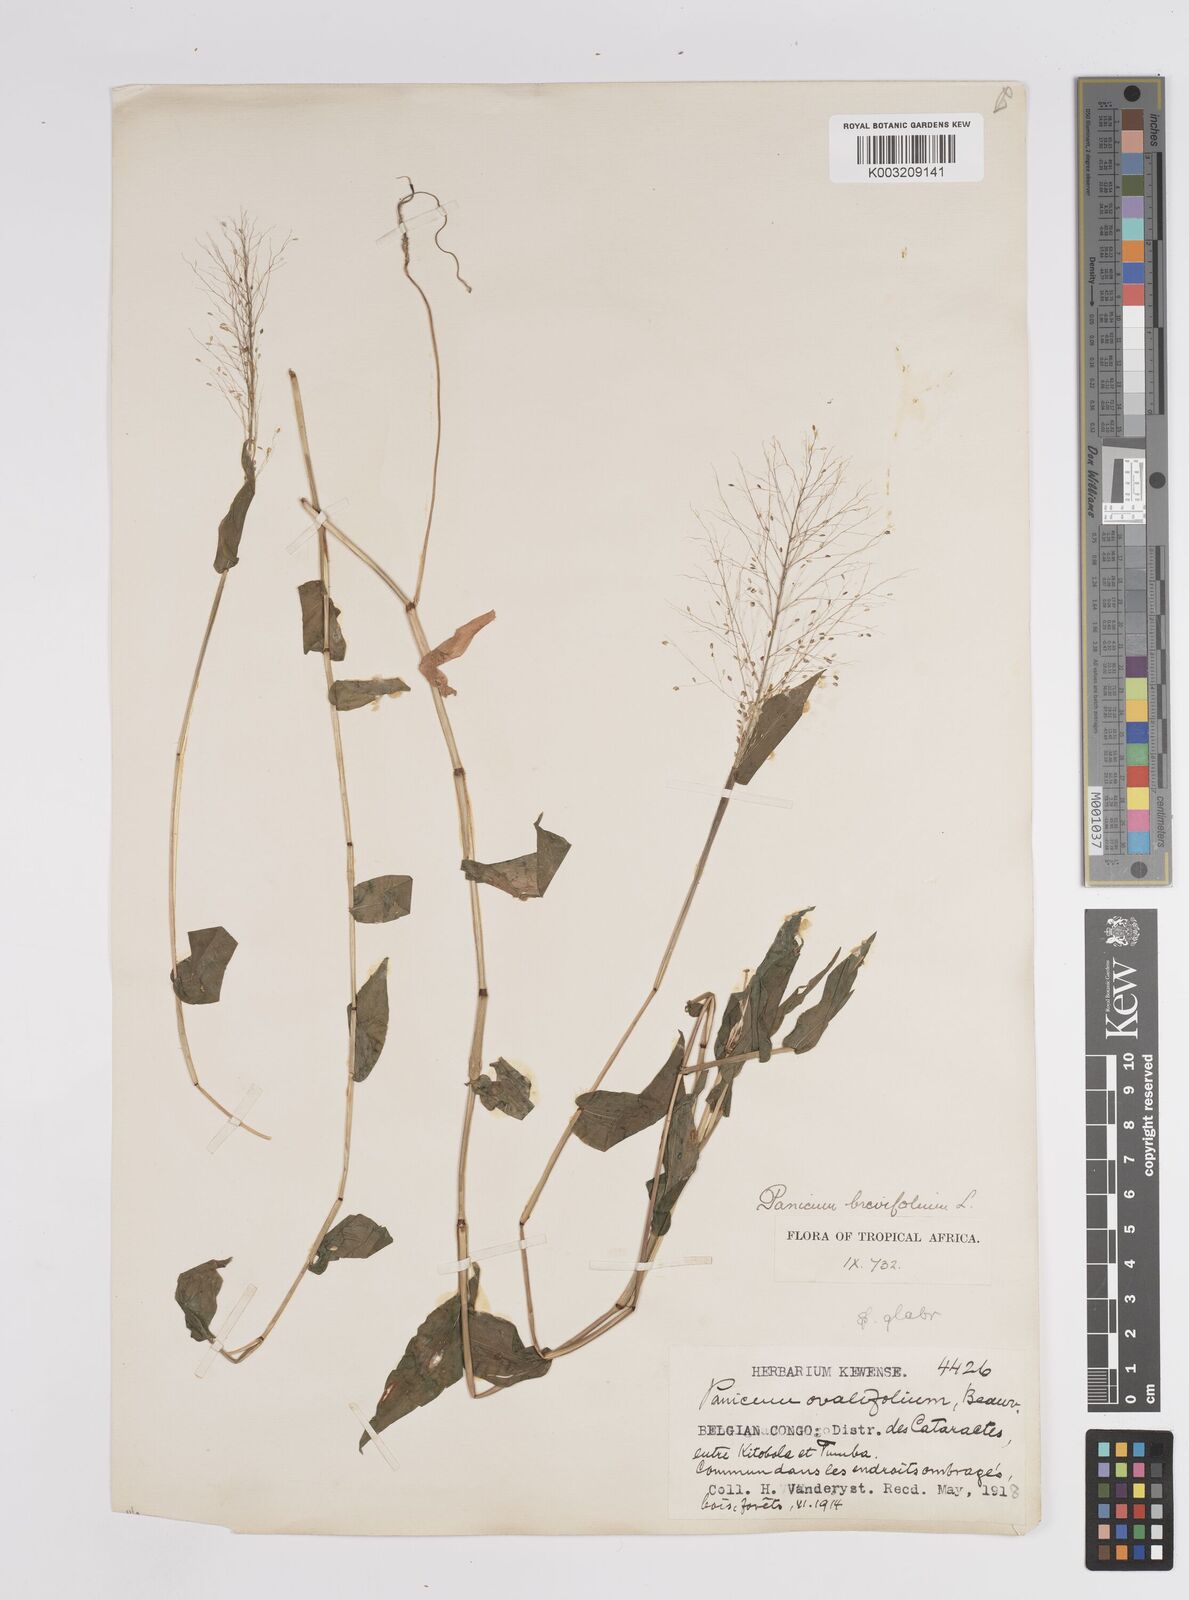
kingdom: Plantae
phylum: Tracheophyta
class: Liliopsida
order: Poales
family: Poaceae
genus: Panicum
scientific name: Panicum brevifolium
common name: Shortleaf panic grass
